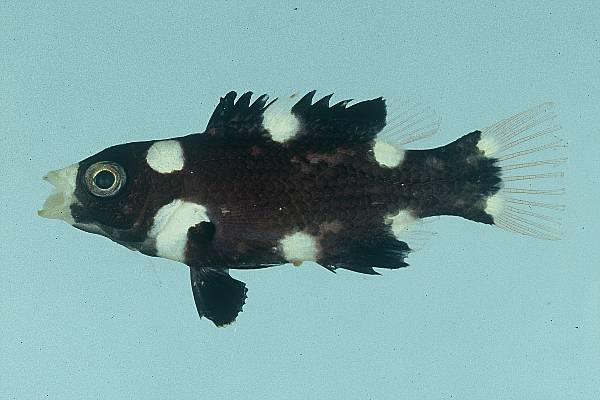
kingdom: Animalia
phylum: Chordata
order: Perciformes
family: Labridae
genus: Bodianus
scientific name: Bodianus axillaris
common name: Axilspot hogfish
